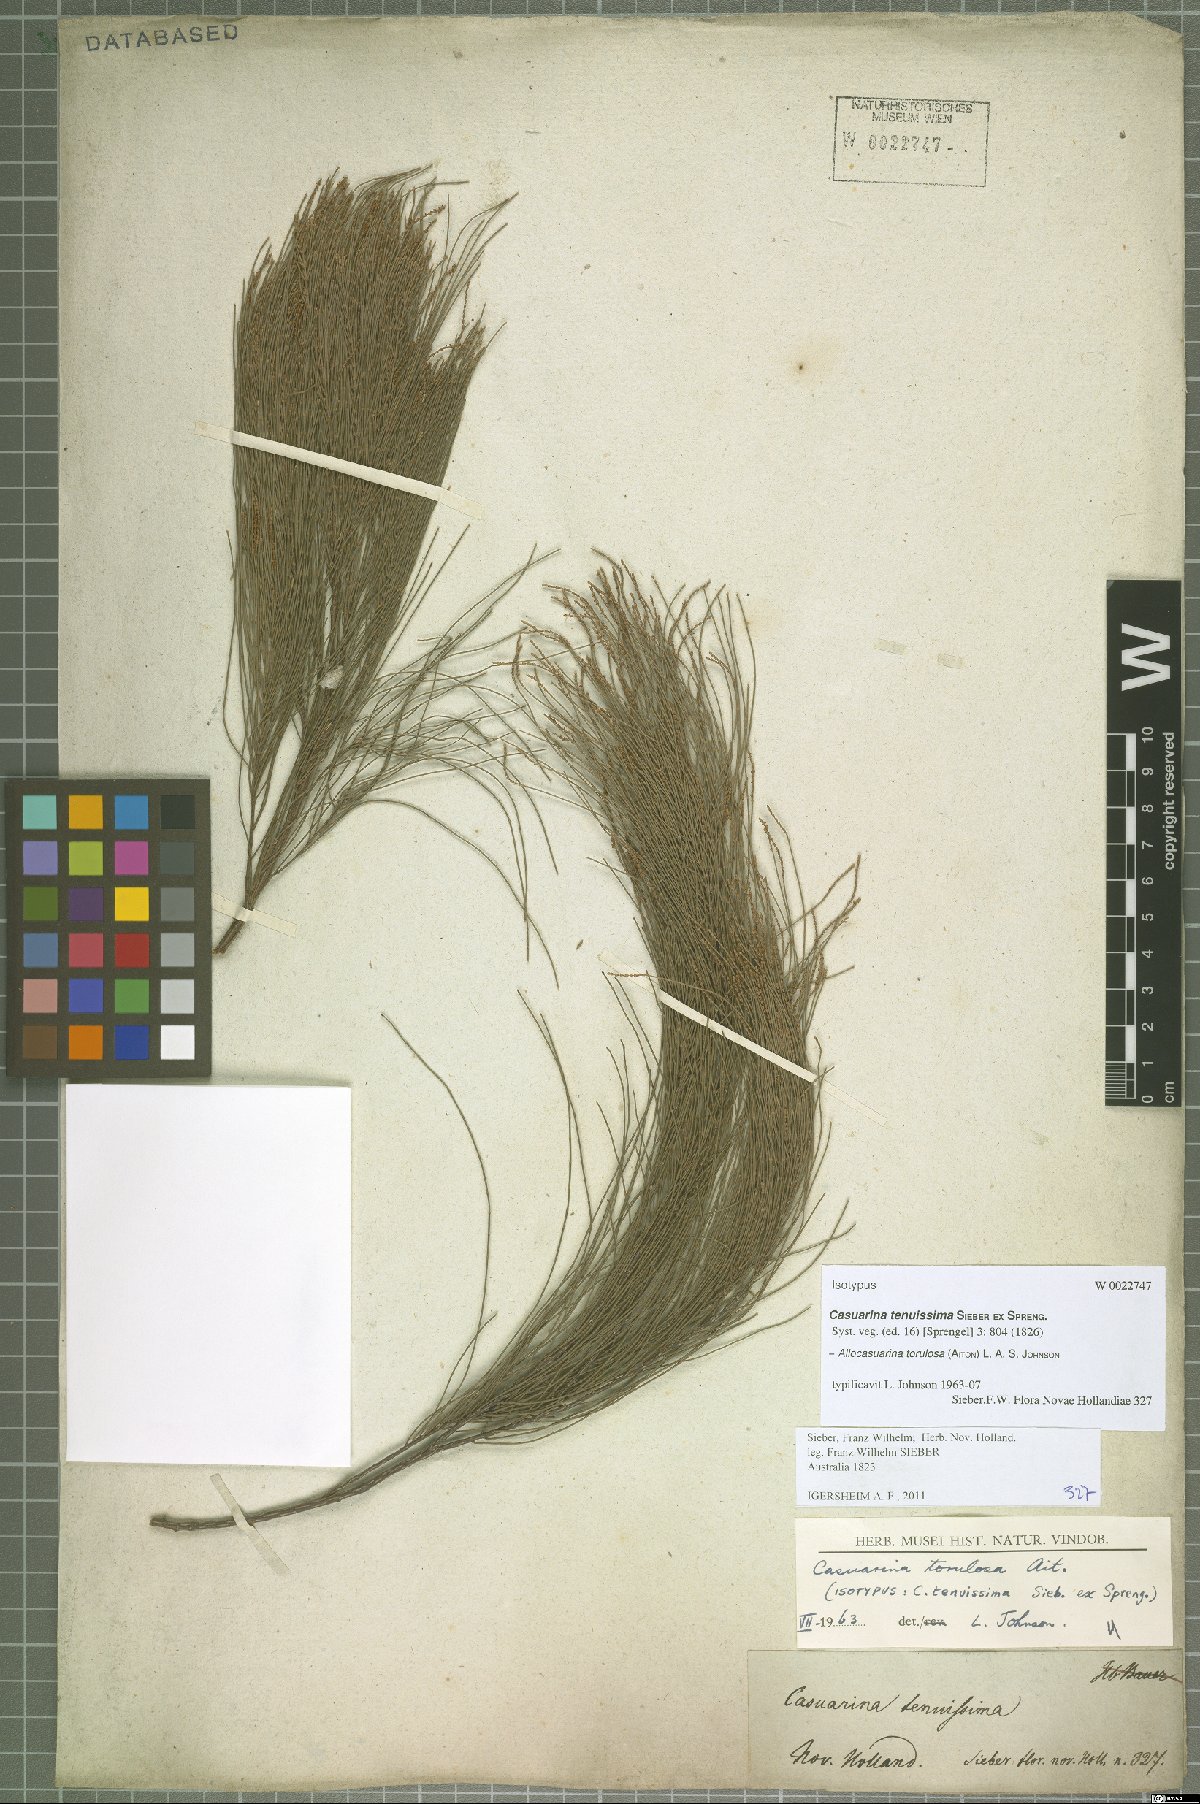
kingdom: Plantae
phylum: Tracheophyta
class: Magnoliopsida
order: Fagales
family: Casuarinaceae
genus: Allocasuarina
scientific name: Allocasuarina torulosa
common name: Forest-oak
